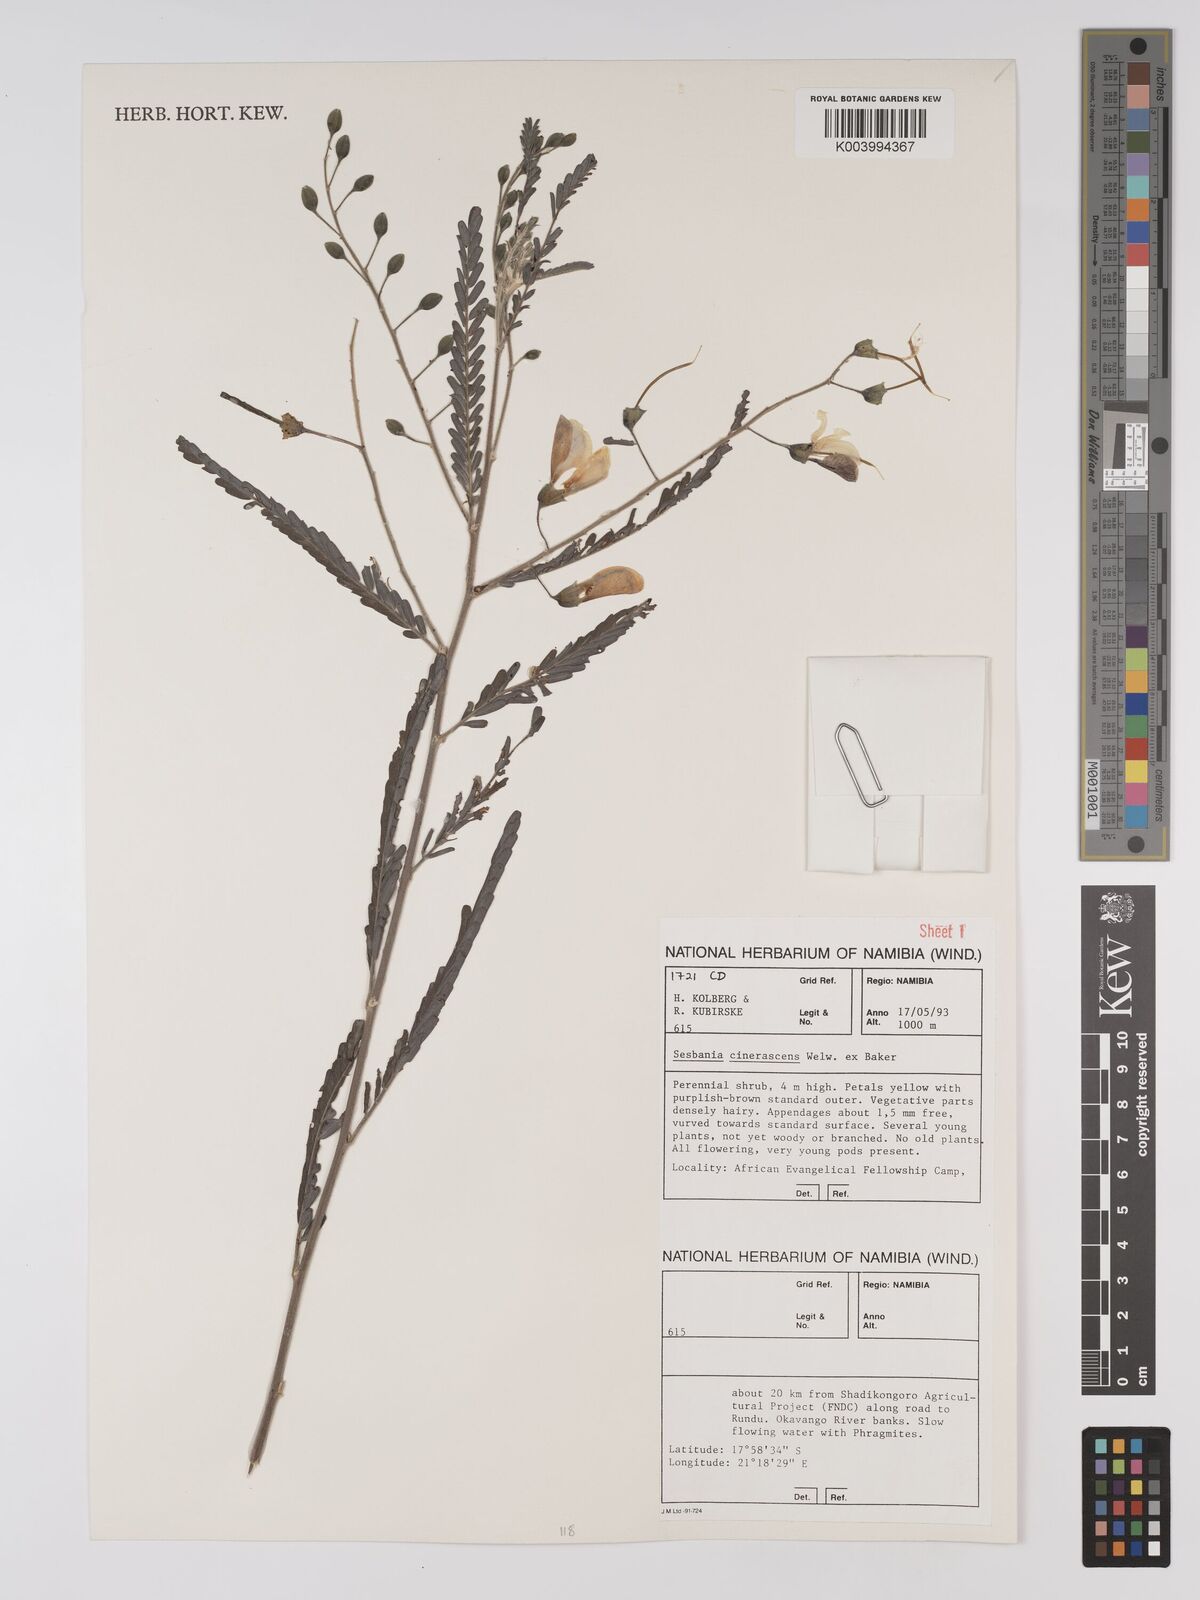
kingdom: Plantae
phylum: Tracheophyta
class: Magnoliopsida
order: Fabales
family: Fabaceae
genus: Sesbania
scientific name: Sesbania cinerascens
